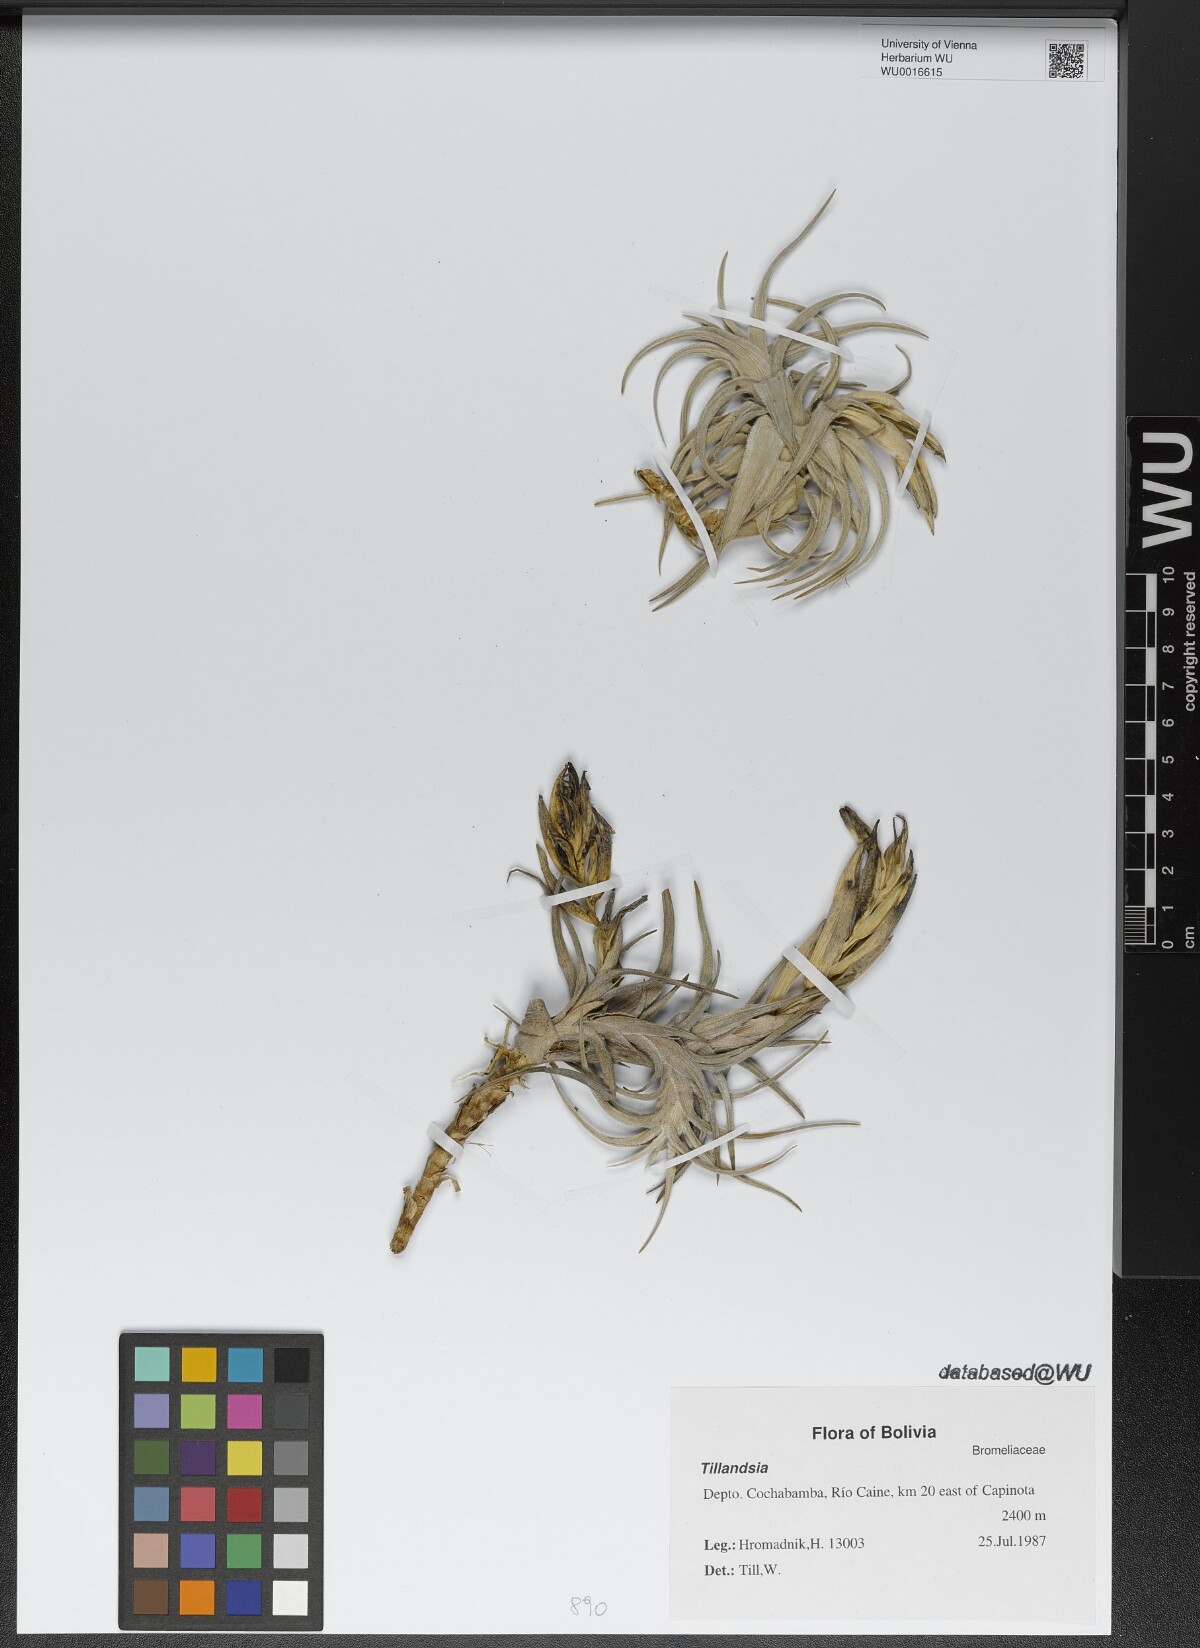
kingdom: Plantae
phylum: Tracheophyta
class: Liliopsida
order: Poales
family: Bromeliaceae
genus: Tillandsia
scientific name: Tillandsia xiphioides
